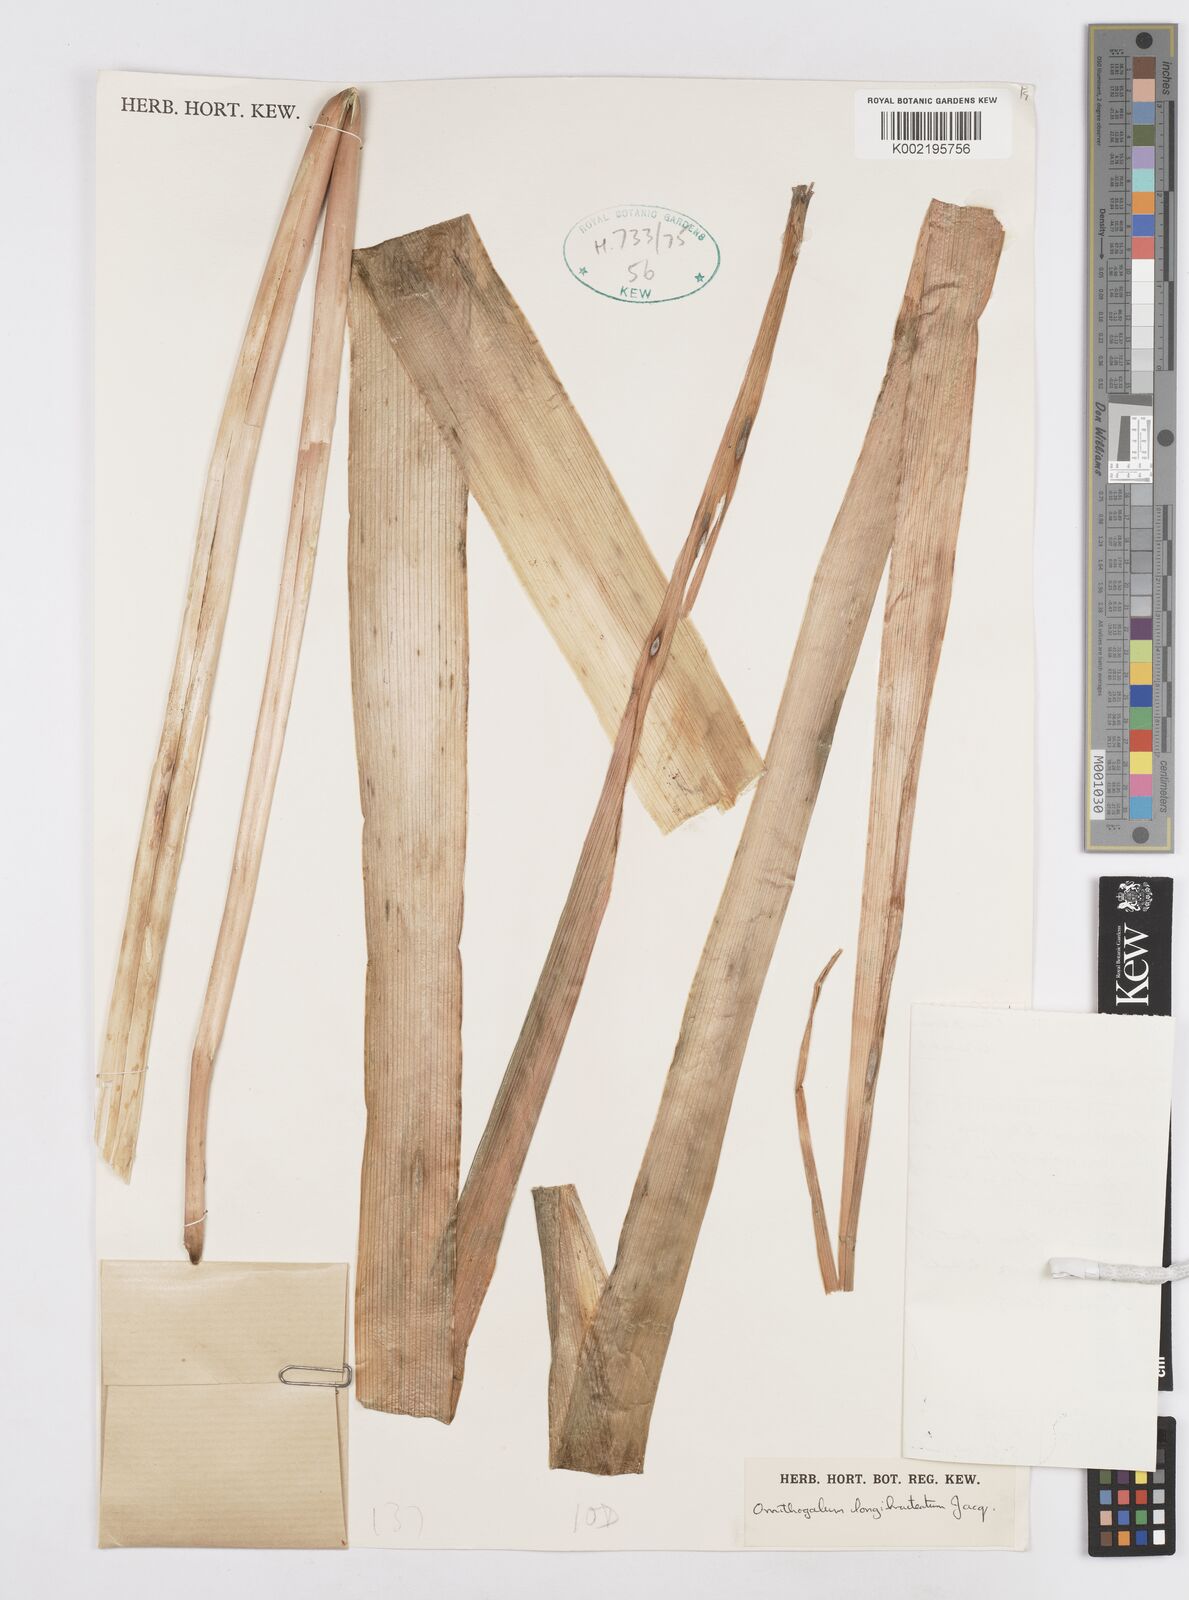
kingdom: Plantae
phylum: Tracheophyta
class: Liliopsida
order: Asparagales
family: Asparagaceae
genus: Ornithogalum
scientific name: Ornithogalum
